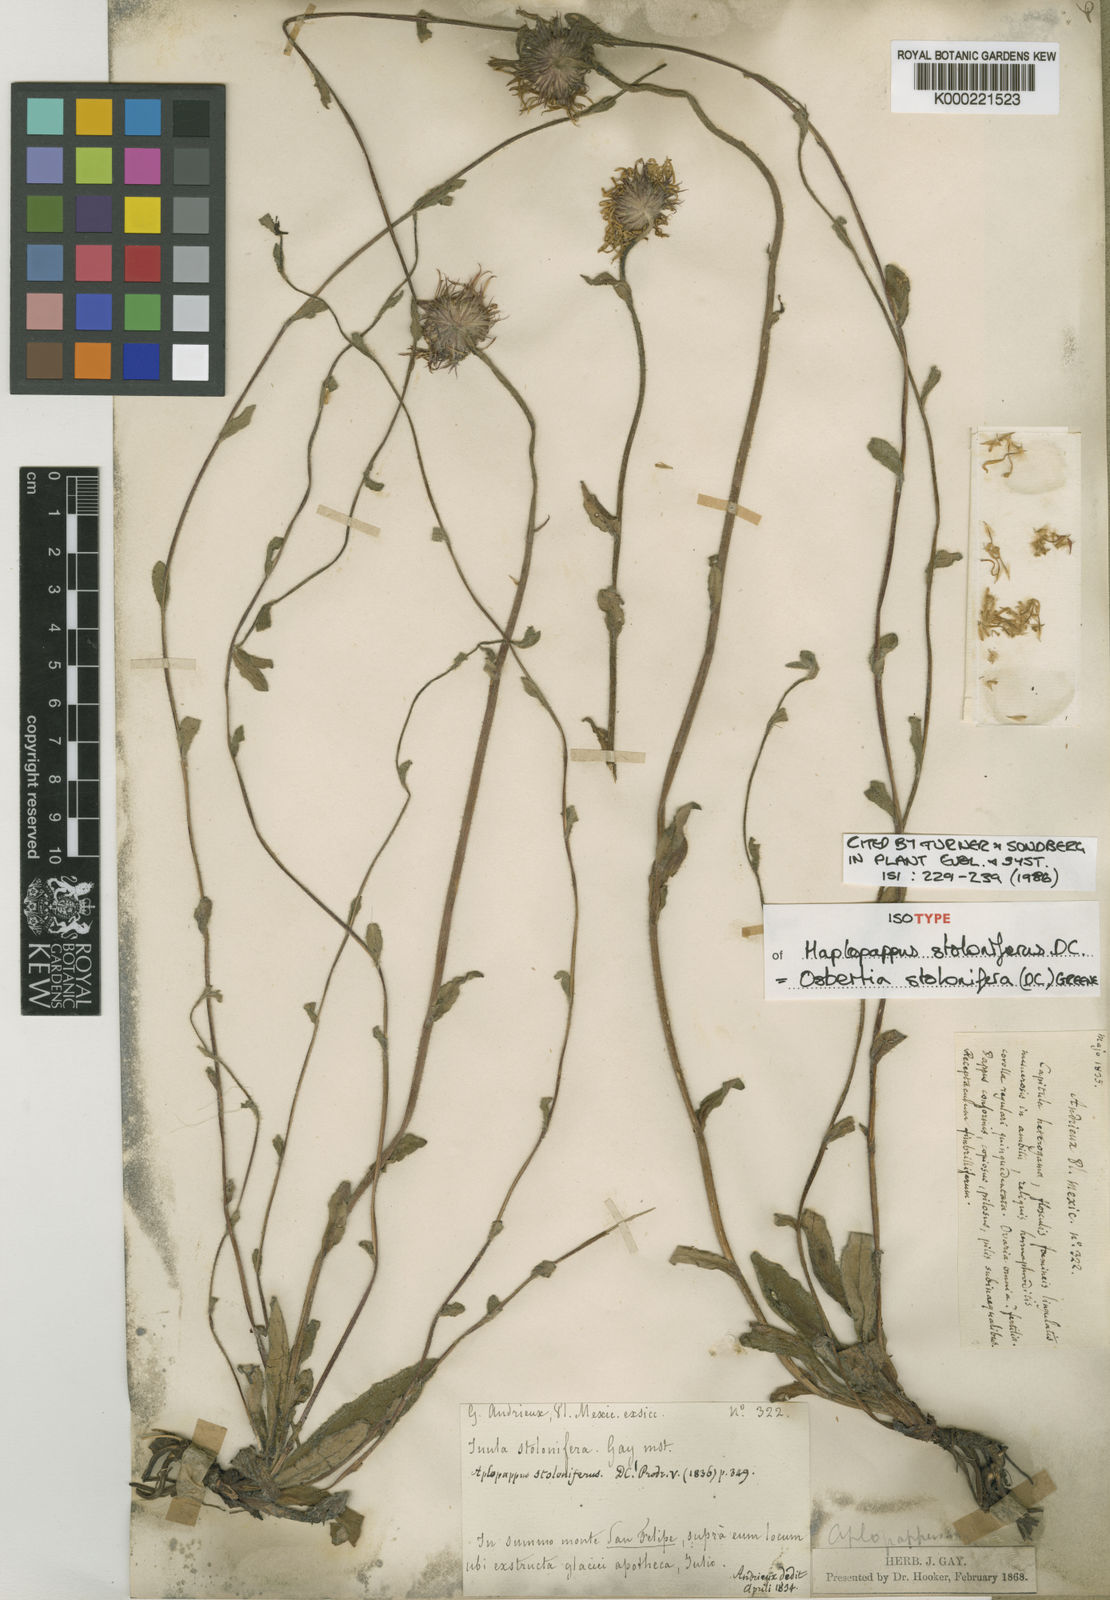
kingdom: Plantae
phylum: Tracheophyta
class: Magnoliopsida
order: Asterales
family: Asteraceae
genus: Osbertia
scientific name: Osbertia stolonifera
